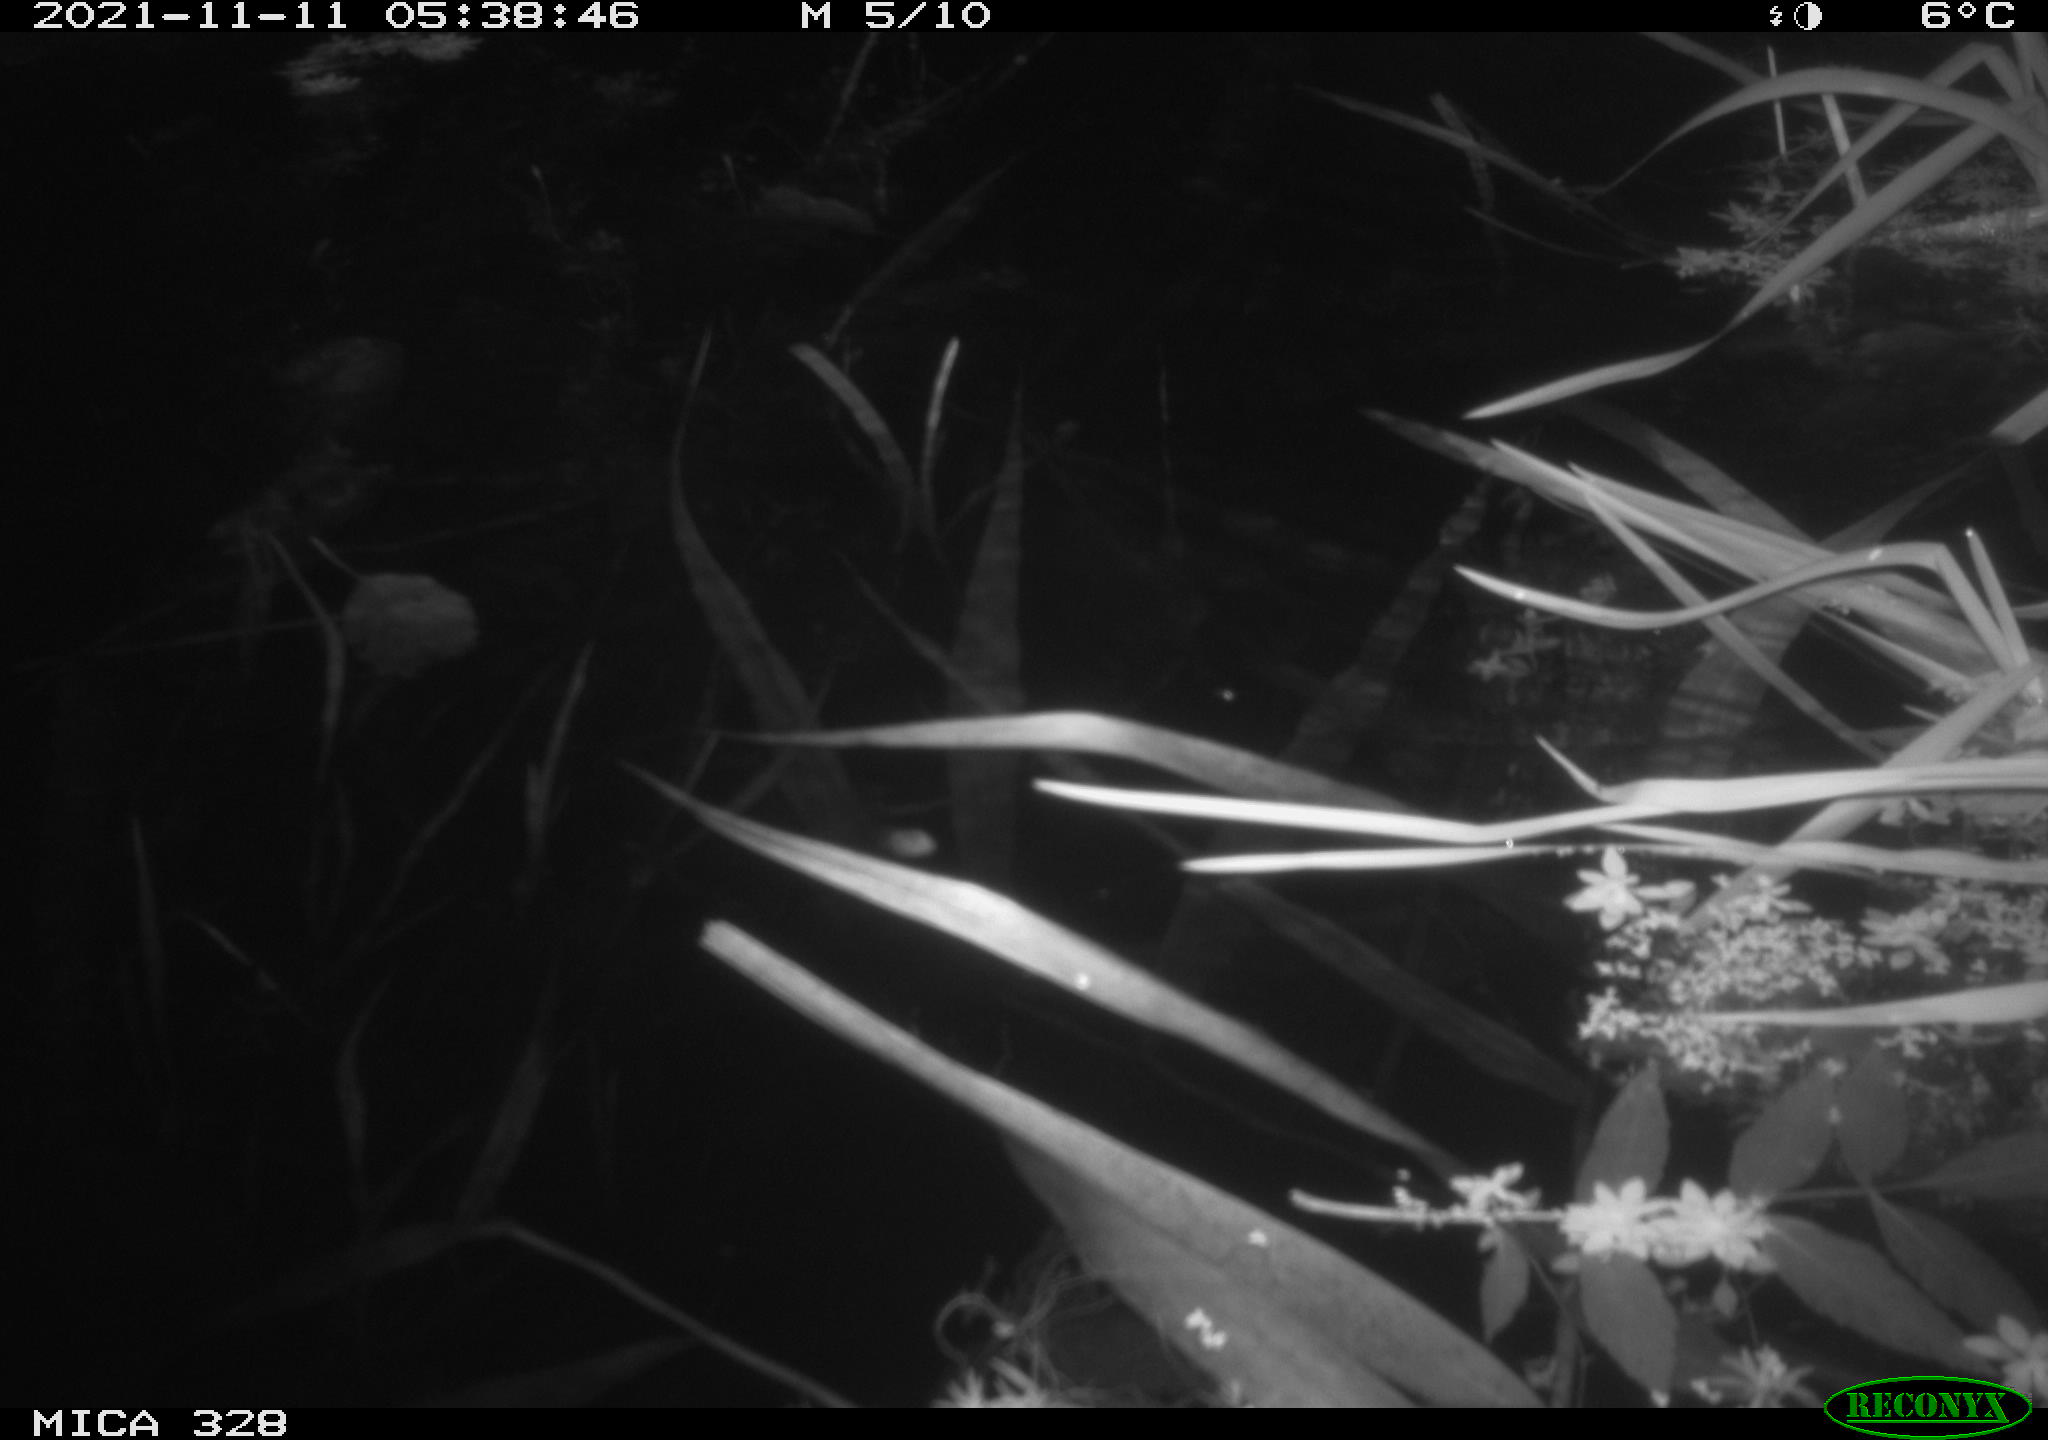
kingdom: Animalia
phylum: Chordata
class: Mammalia
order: Rodentia
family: Cricetidae
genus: Ondatra
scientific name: Ondatra zibethicus
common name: Muskrat
